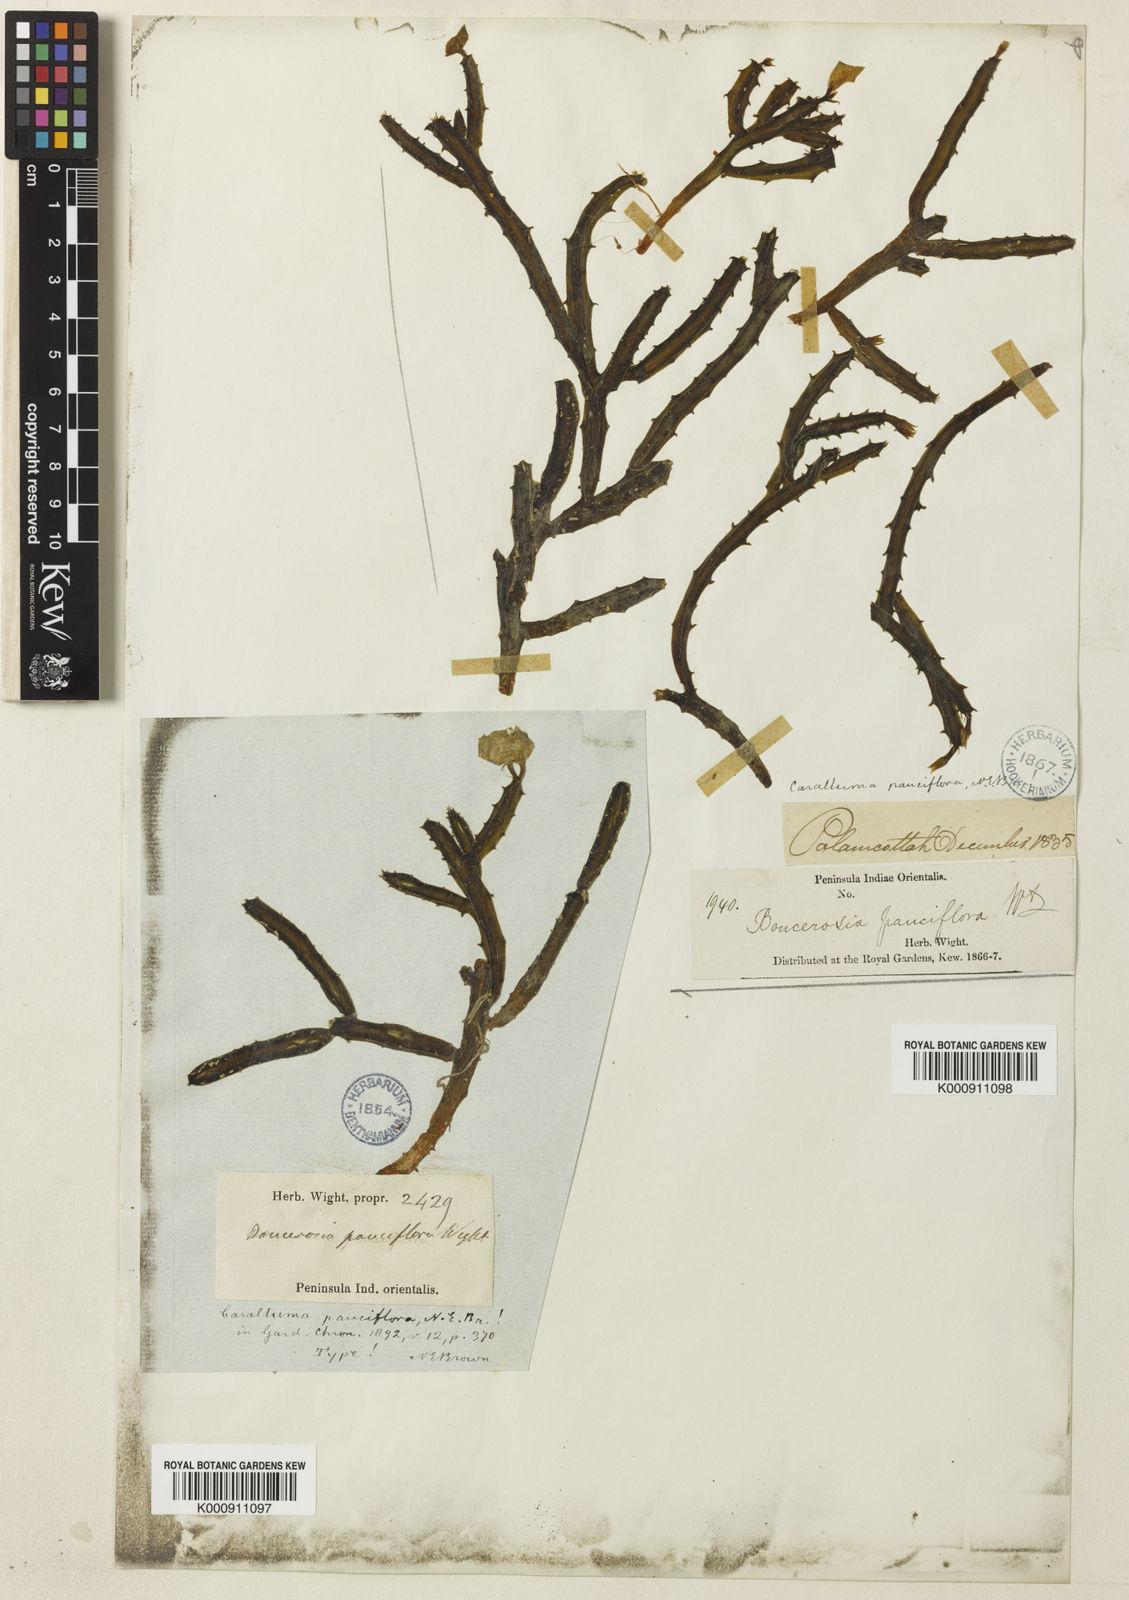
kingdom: Plantae
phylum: Tracheophyta
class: Magnoliopsida
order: Gentianales
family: Apocynaceae
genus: Ceropegia
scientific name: Ceropegia pauciflora
